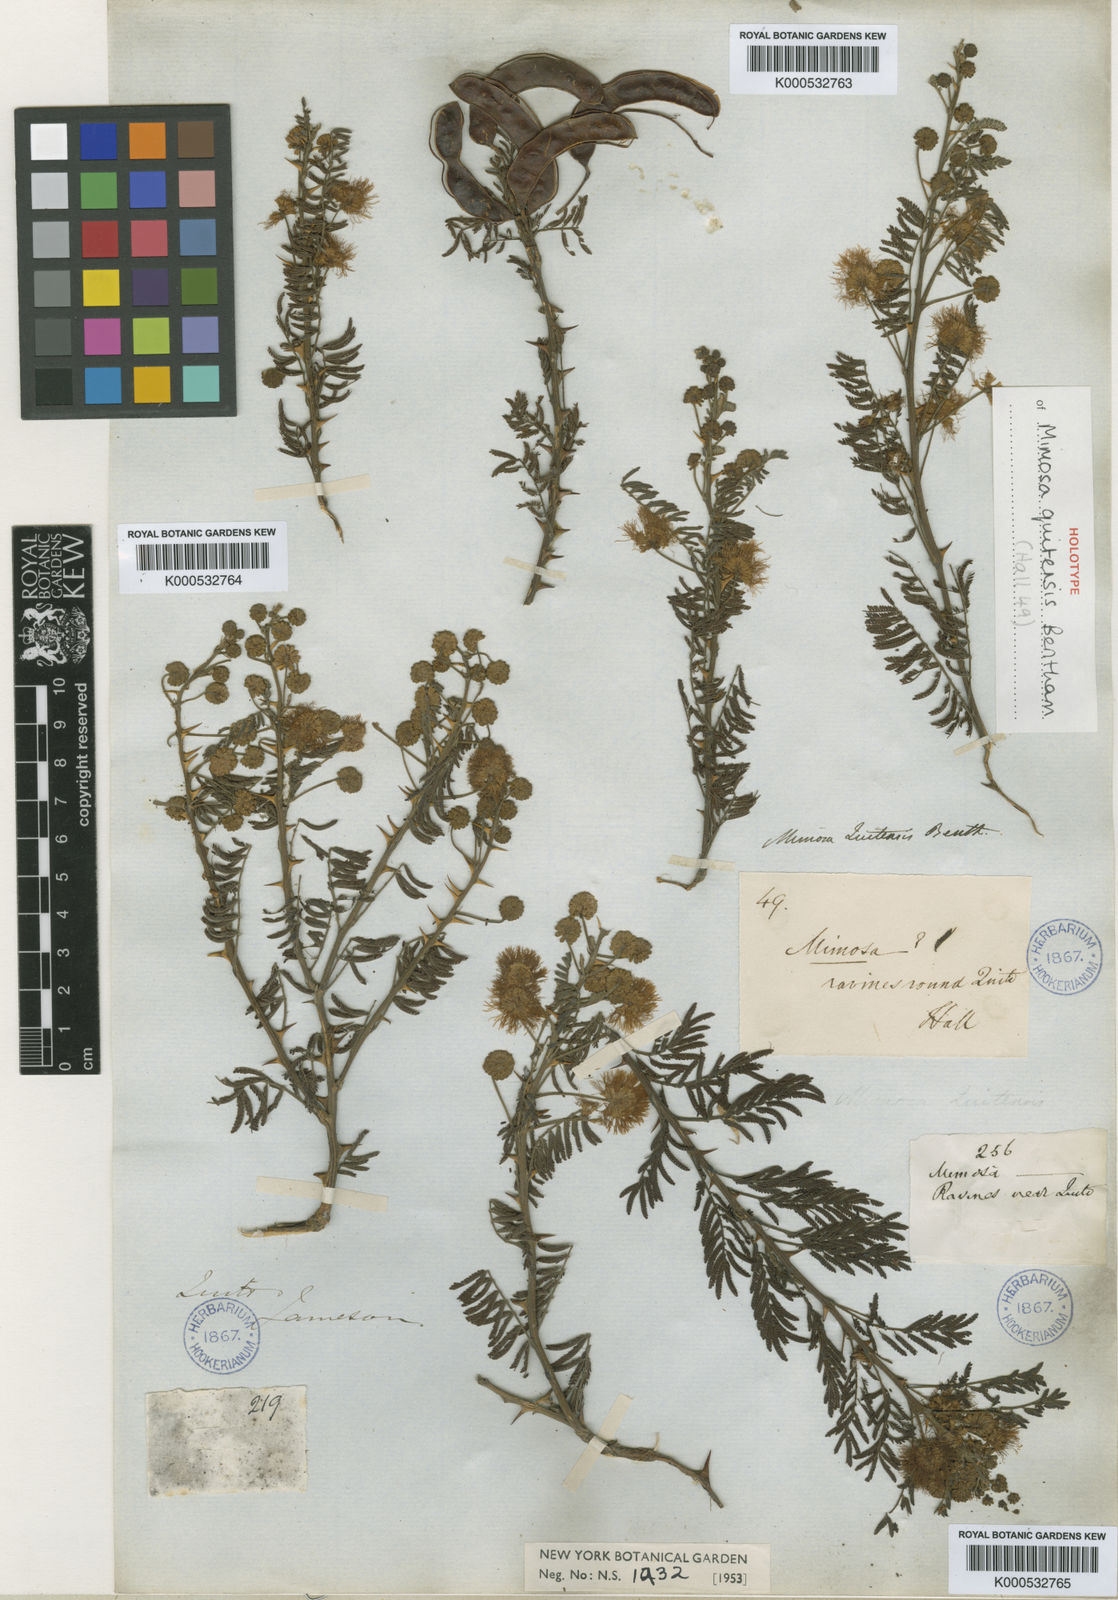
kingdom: Plantae
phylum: Tracheophyta
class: Magnoliopsida
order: Fabales
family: Fabaceae
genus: Mimosa
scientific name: Mimosa quitensis
